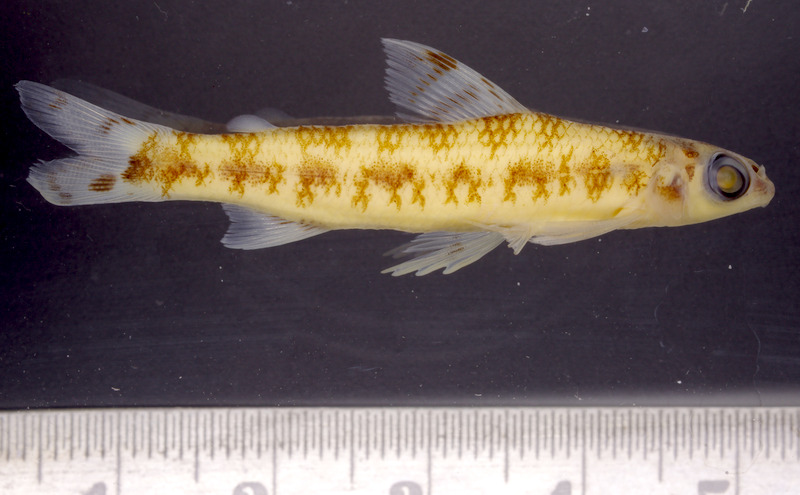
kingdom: Animalia
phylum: Chordata
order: Characiformes
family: Distichodontidae
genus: Nannocharax
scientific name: Nannocharax signifer
